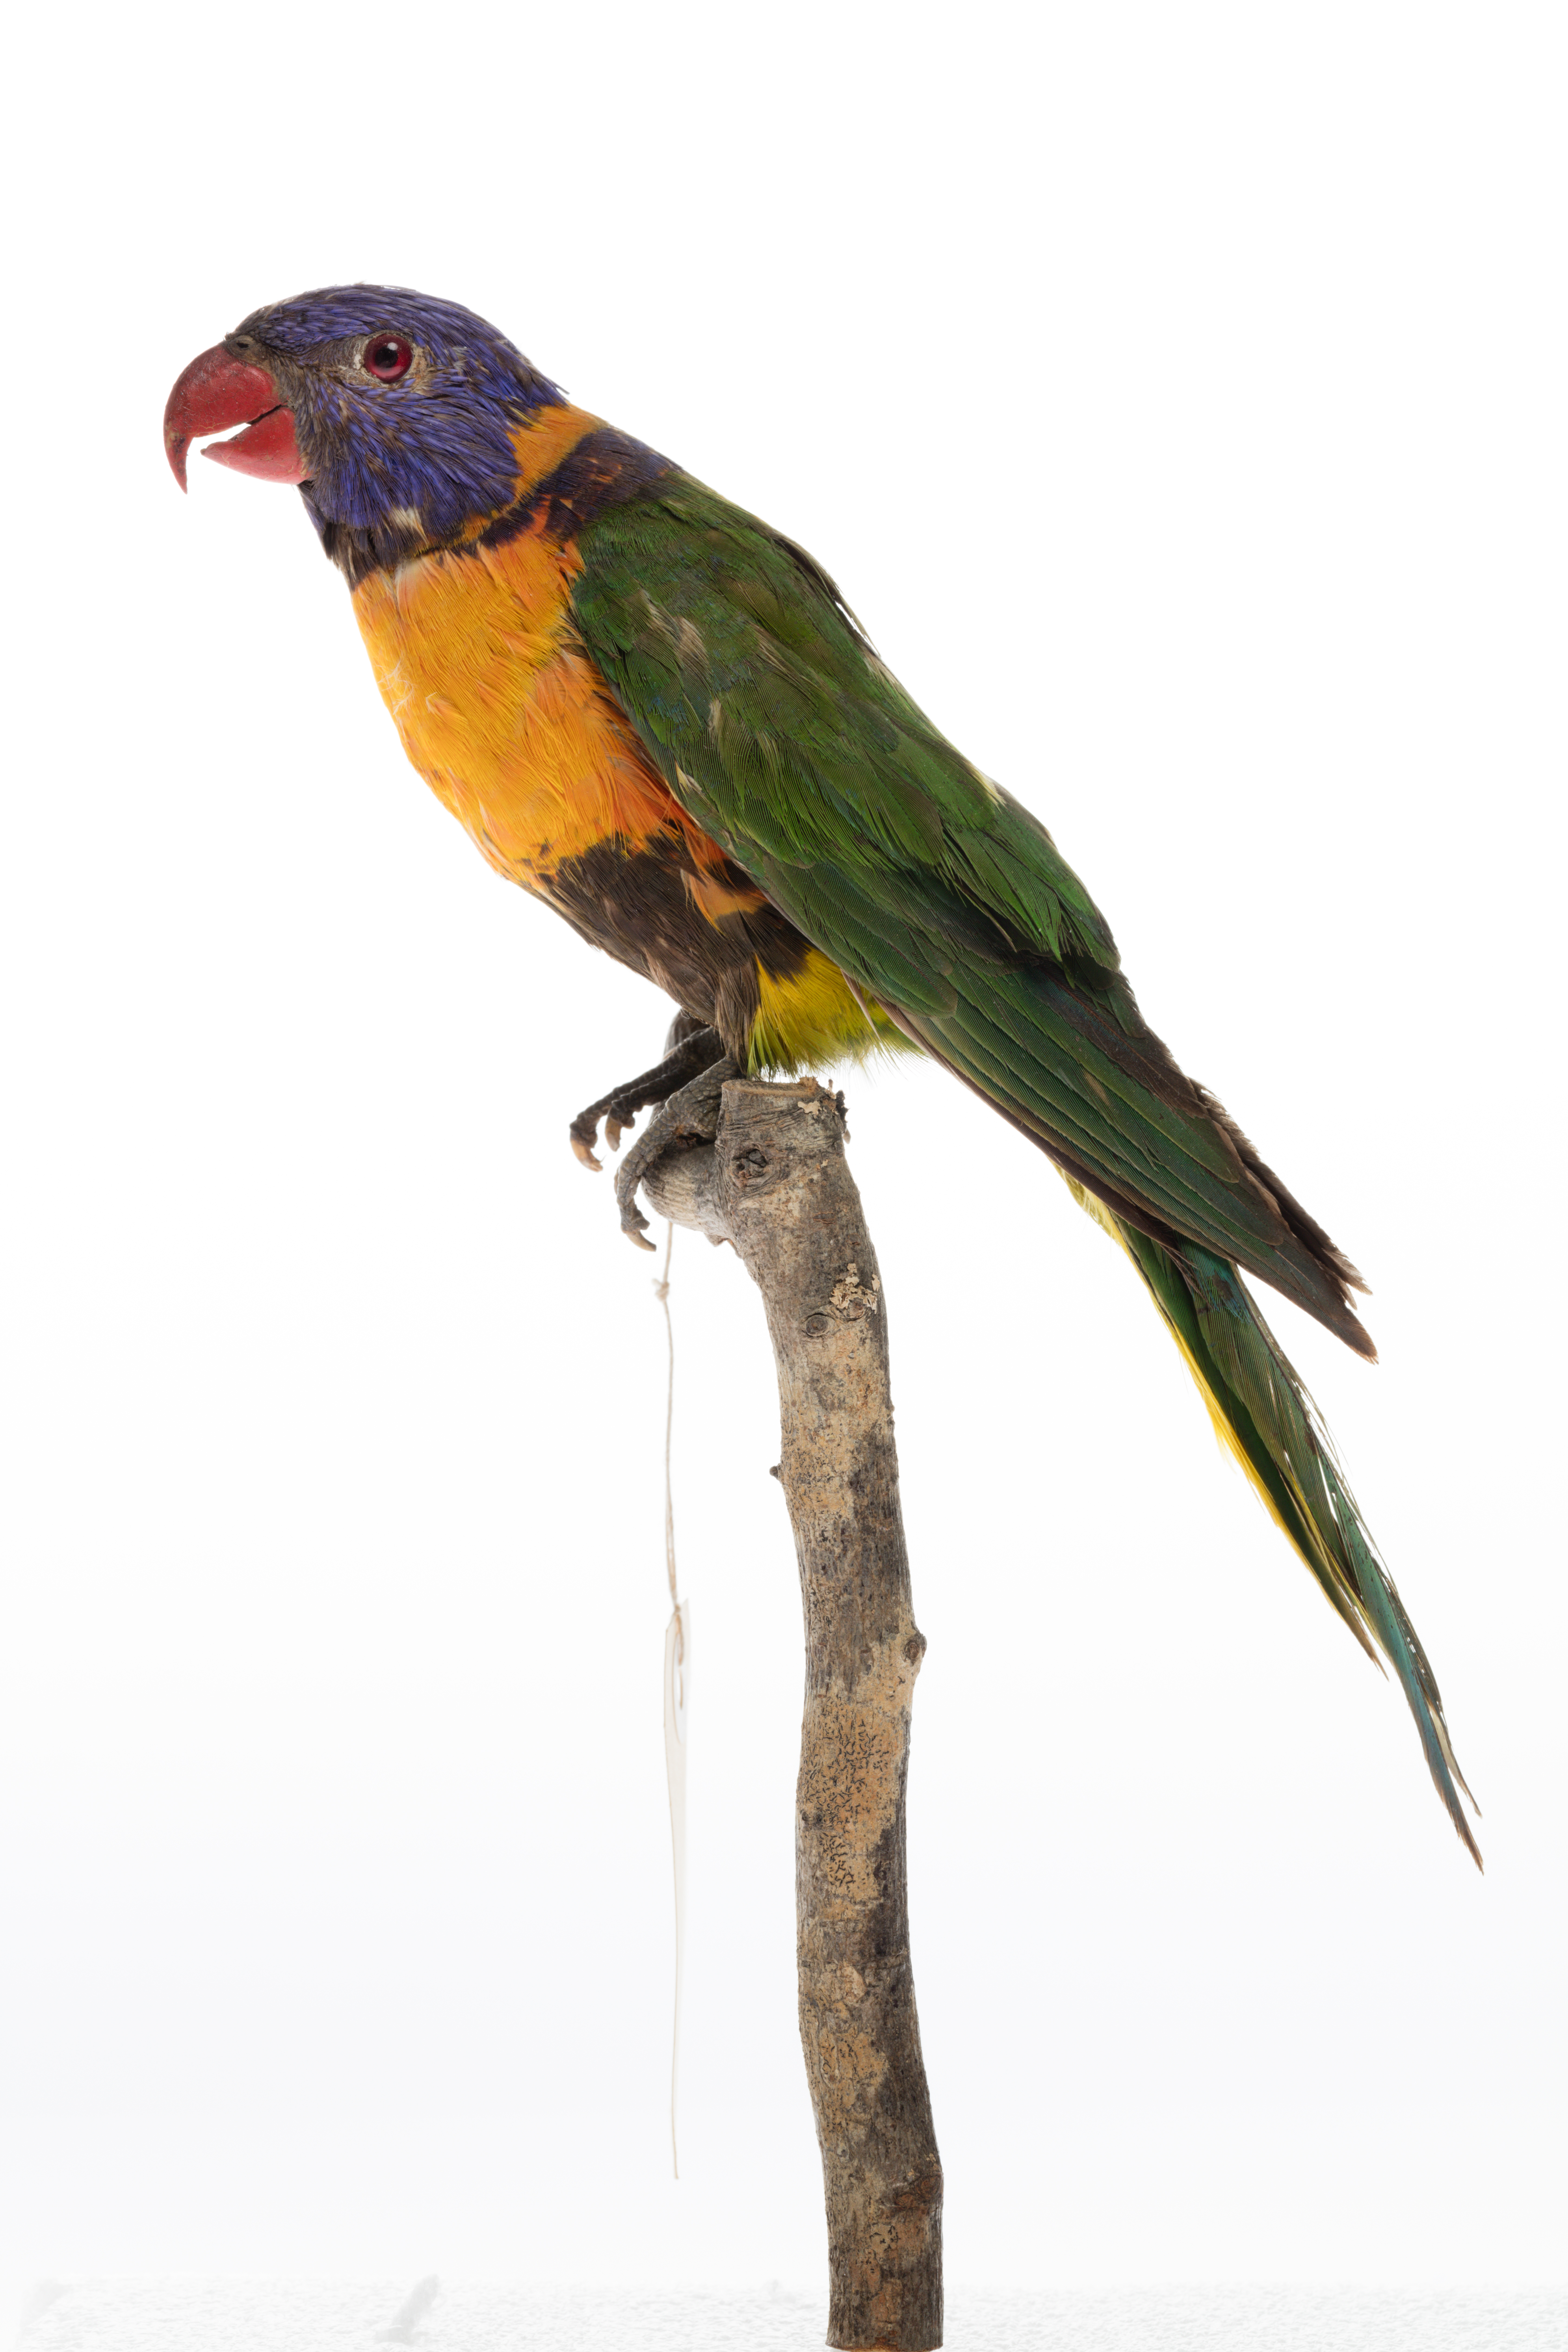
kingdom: Animalia
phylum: Chordata
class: Aves
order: Psittaciformes
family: Psittacidae
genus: Trichoglossus
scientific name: Trichoglossus haematodus
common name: Coconut lorikeet
